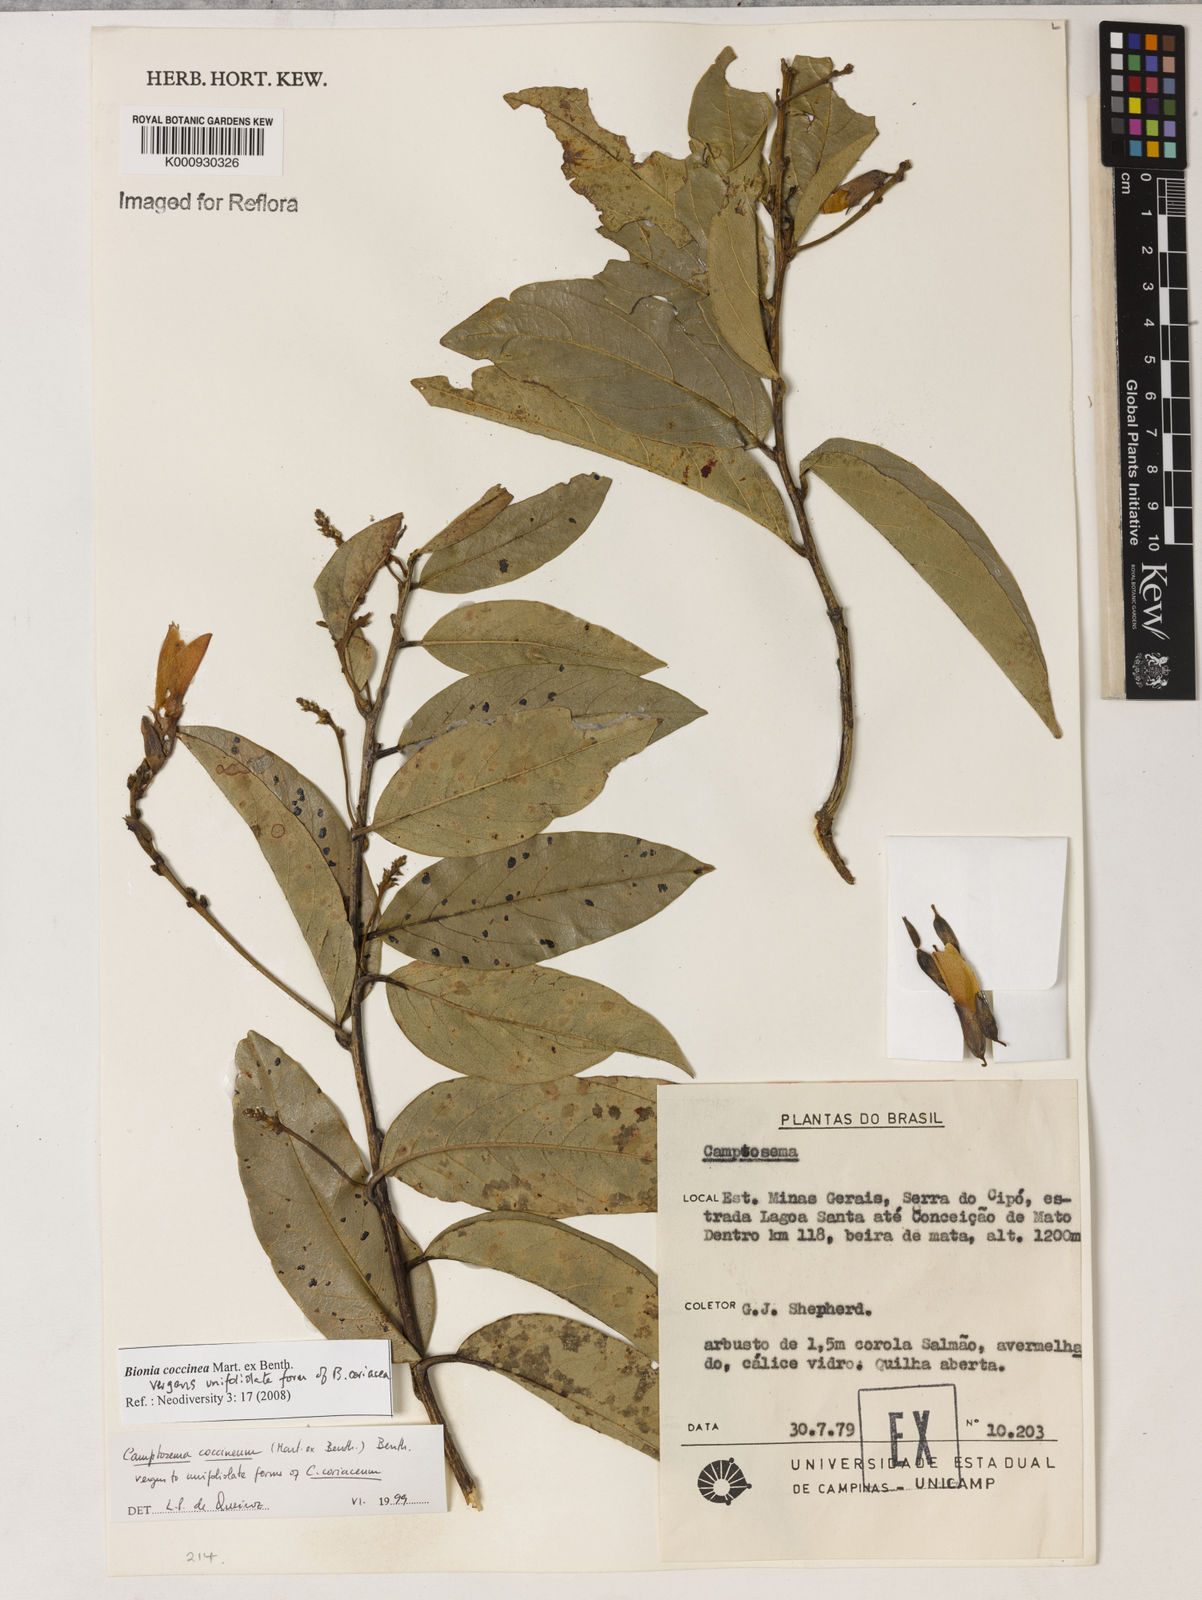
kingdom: Plantae
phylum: Tracheophyta
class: Magnoliopsida
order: Fabales
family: Fabaceae
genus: Camptosema
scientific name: Camptosema coccineum
